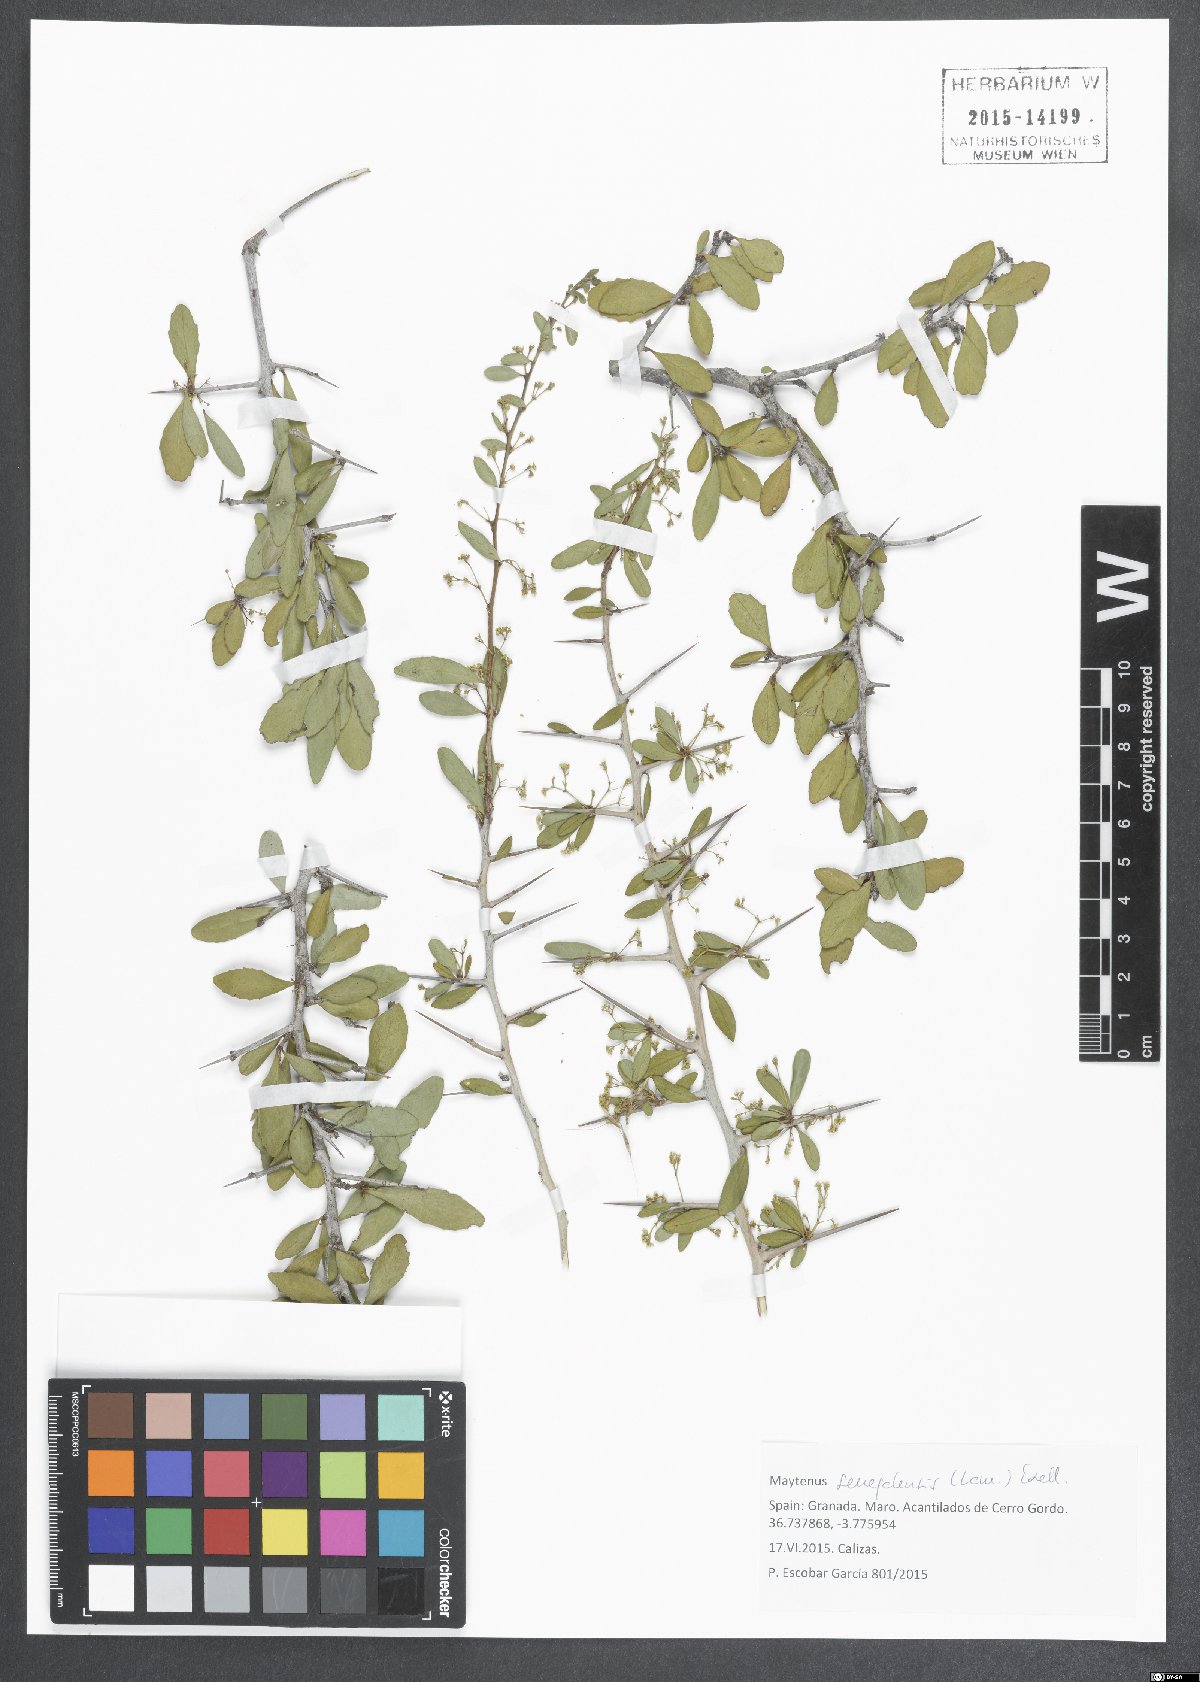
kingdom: Plantae
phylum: Tracheophyta
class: Magnoliopsida
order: Celastrales
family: Celastraceae
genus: Gymnosporia
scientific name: Gymnosporia senegalensis
